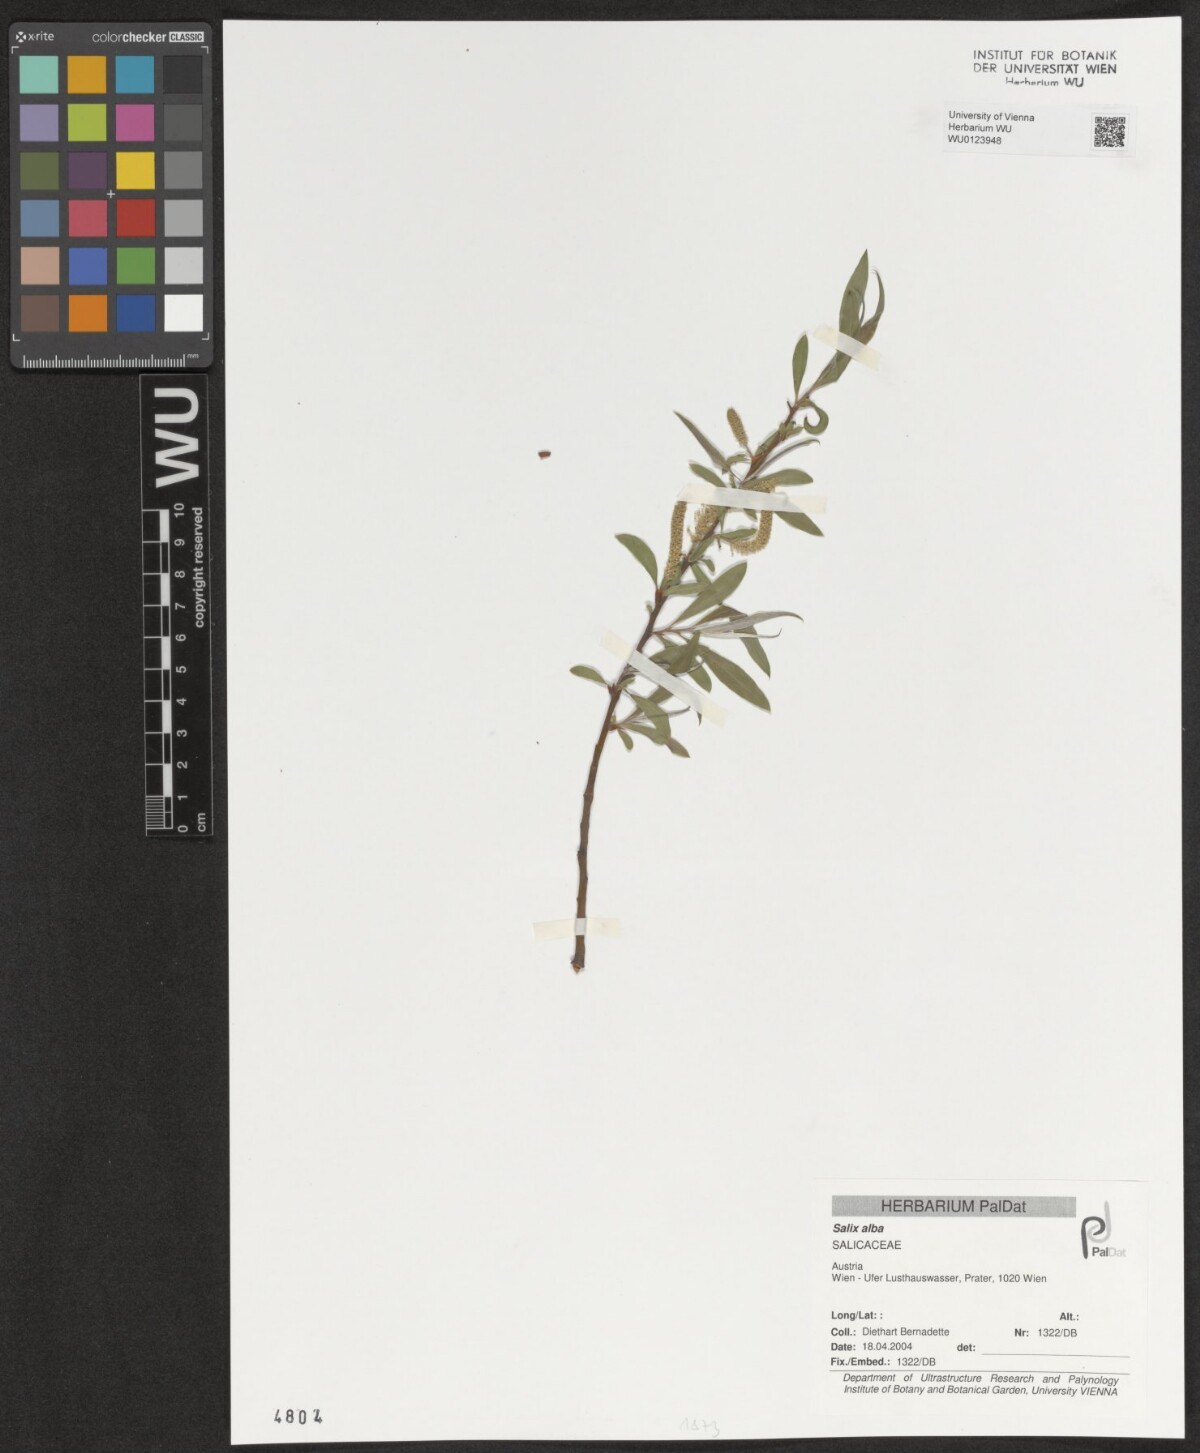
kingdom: Plantae
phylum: Tracheophyta
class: Magnoliopsida
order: Malpighiales
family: Salicaceae
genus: Salix
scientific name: Salix alba
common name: White willow
